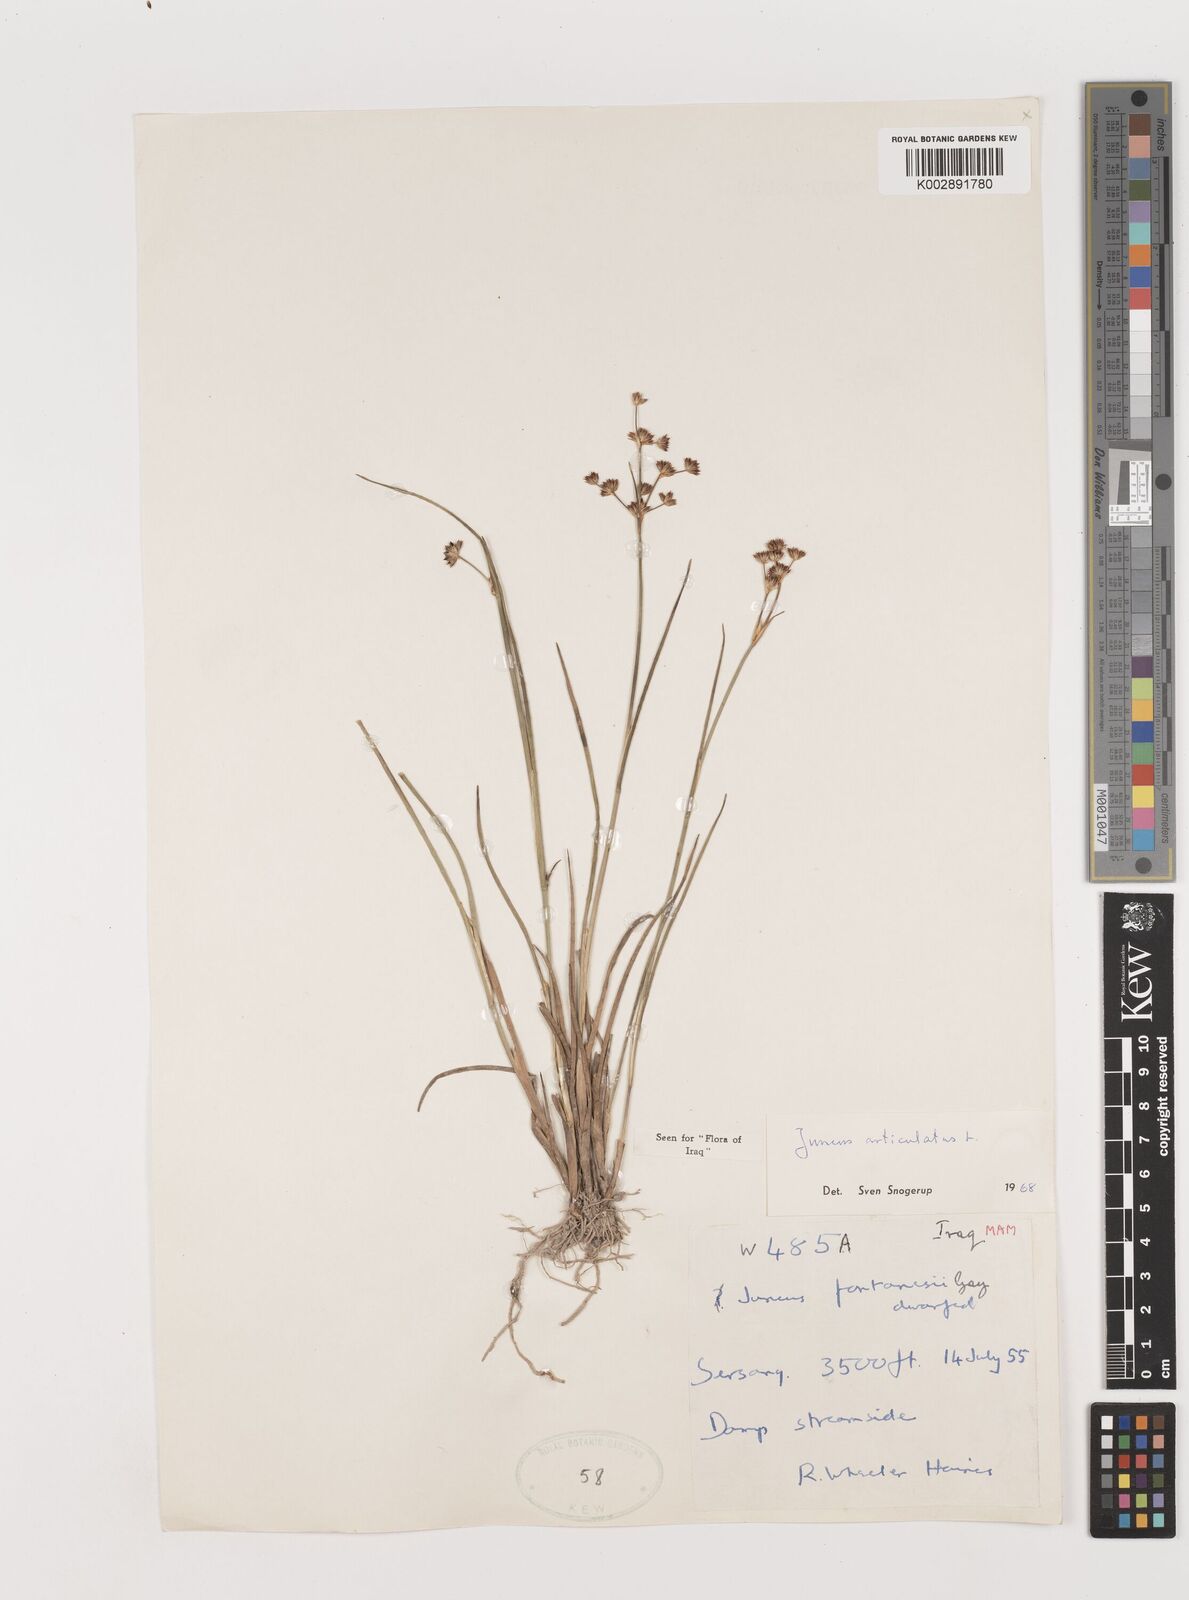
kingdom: Plantae
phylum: Tracheophyta
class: Liliopsida
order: Poales
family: Juncaceae
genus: Juncus
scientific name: Juncus articulatus
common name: Jointed rush
